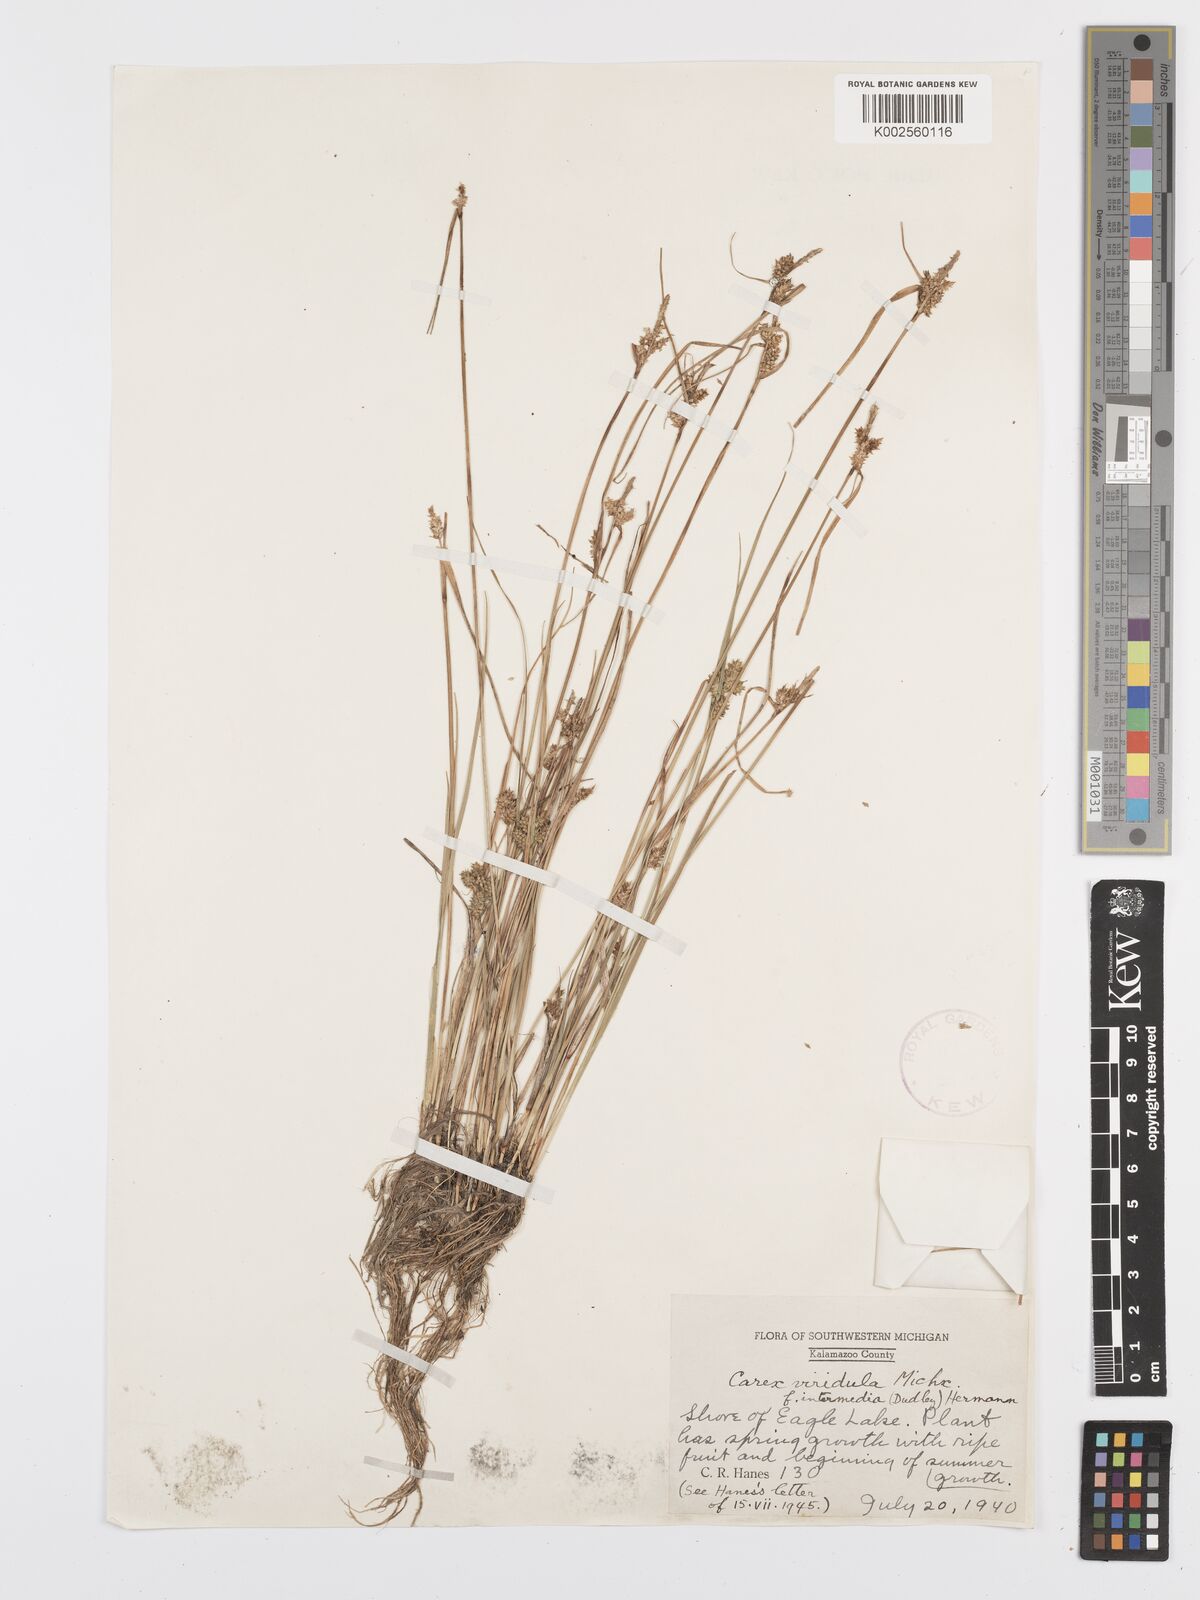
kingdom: Plantae
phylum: Tracheophyta
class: Liliopsida
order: Poales
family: Cyperaceae
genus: Carex
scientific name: Carex oederi
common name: Common & small-fruited yellow-sedge
